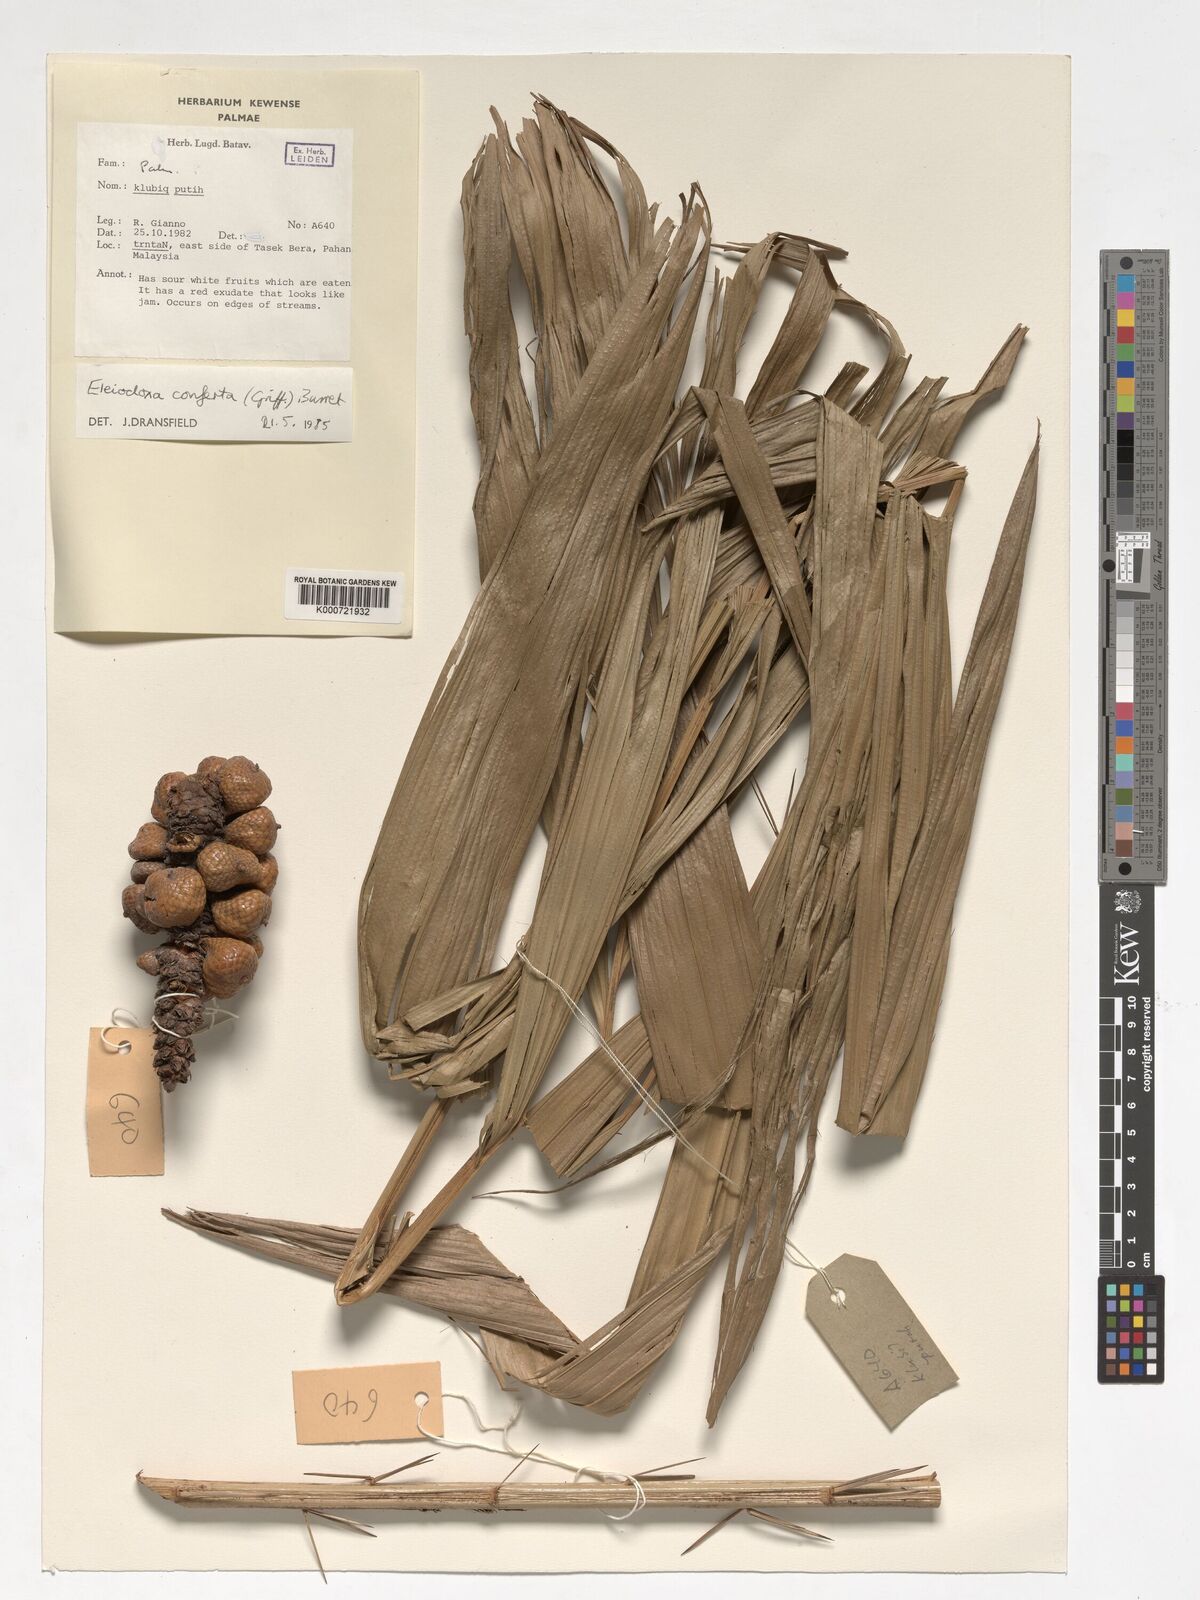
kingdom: Plantae
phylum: Tracheophyta
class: Liliopsida
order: Arecales
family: Arecaceae
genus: Eleiodoxa
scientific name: Eleiodoxa conferta
